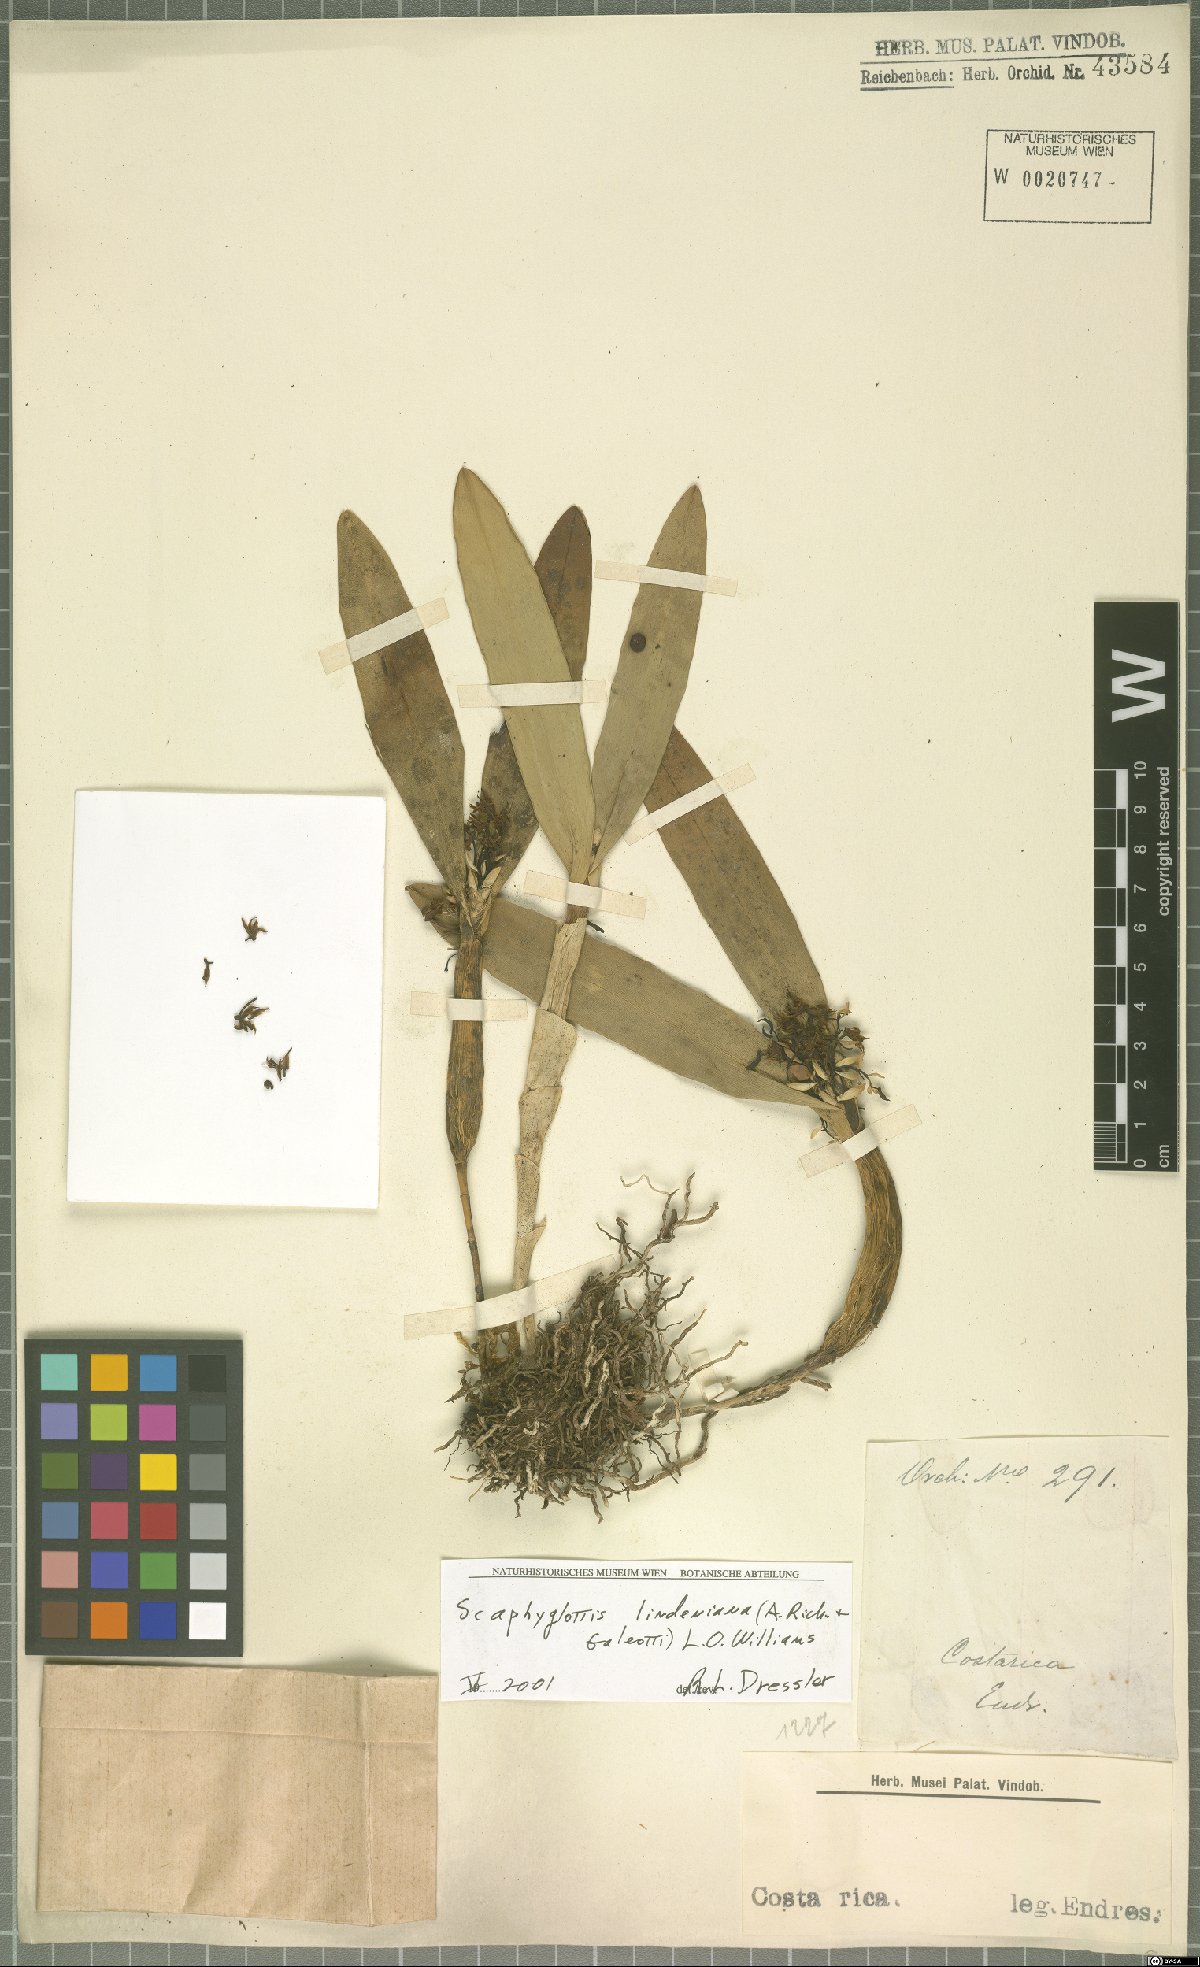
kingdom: Plantae
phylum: Tracheophyta
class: Liliopsida
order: Asparagales
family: Orchidaceae
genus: Scaphyglottis
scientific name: Scaphyglottis lindeniana
